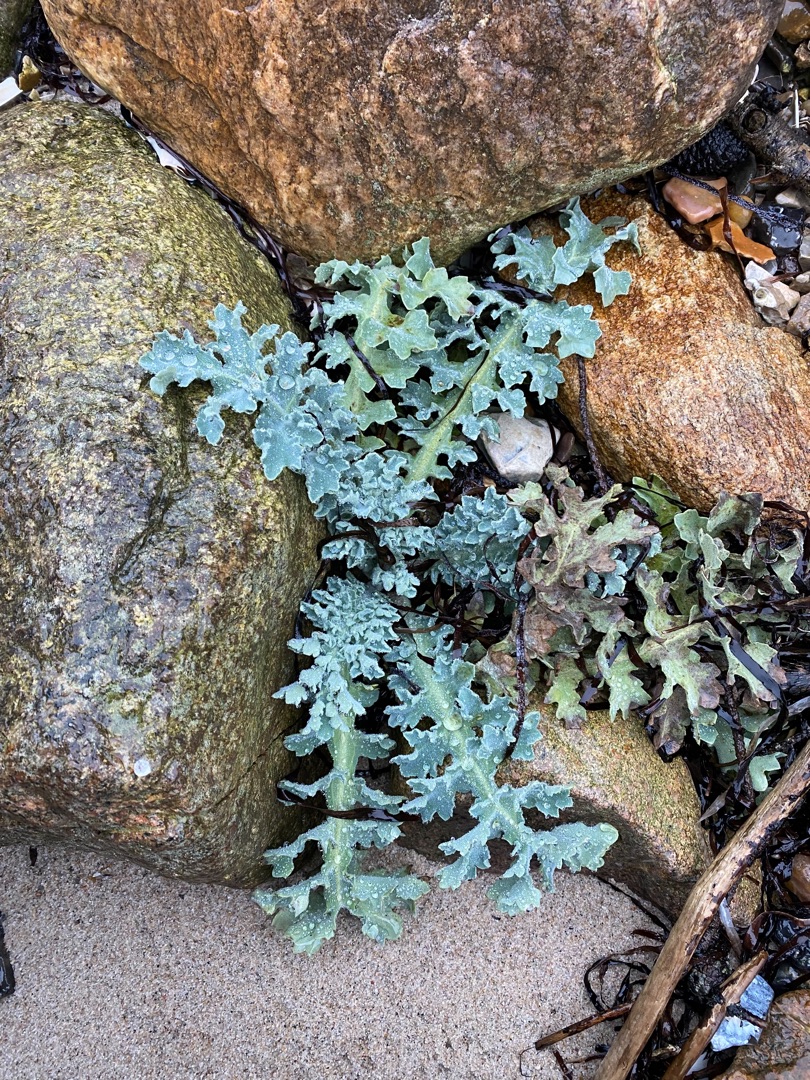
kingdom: Plantae
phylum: Tracheophyta
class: Magnoliopsida
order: Ranunculales
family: Papaveraceae
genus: Glaucium
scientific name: Glaucium flavum
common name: Hornskulpe
